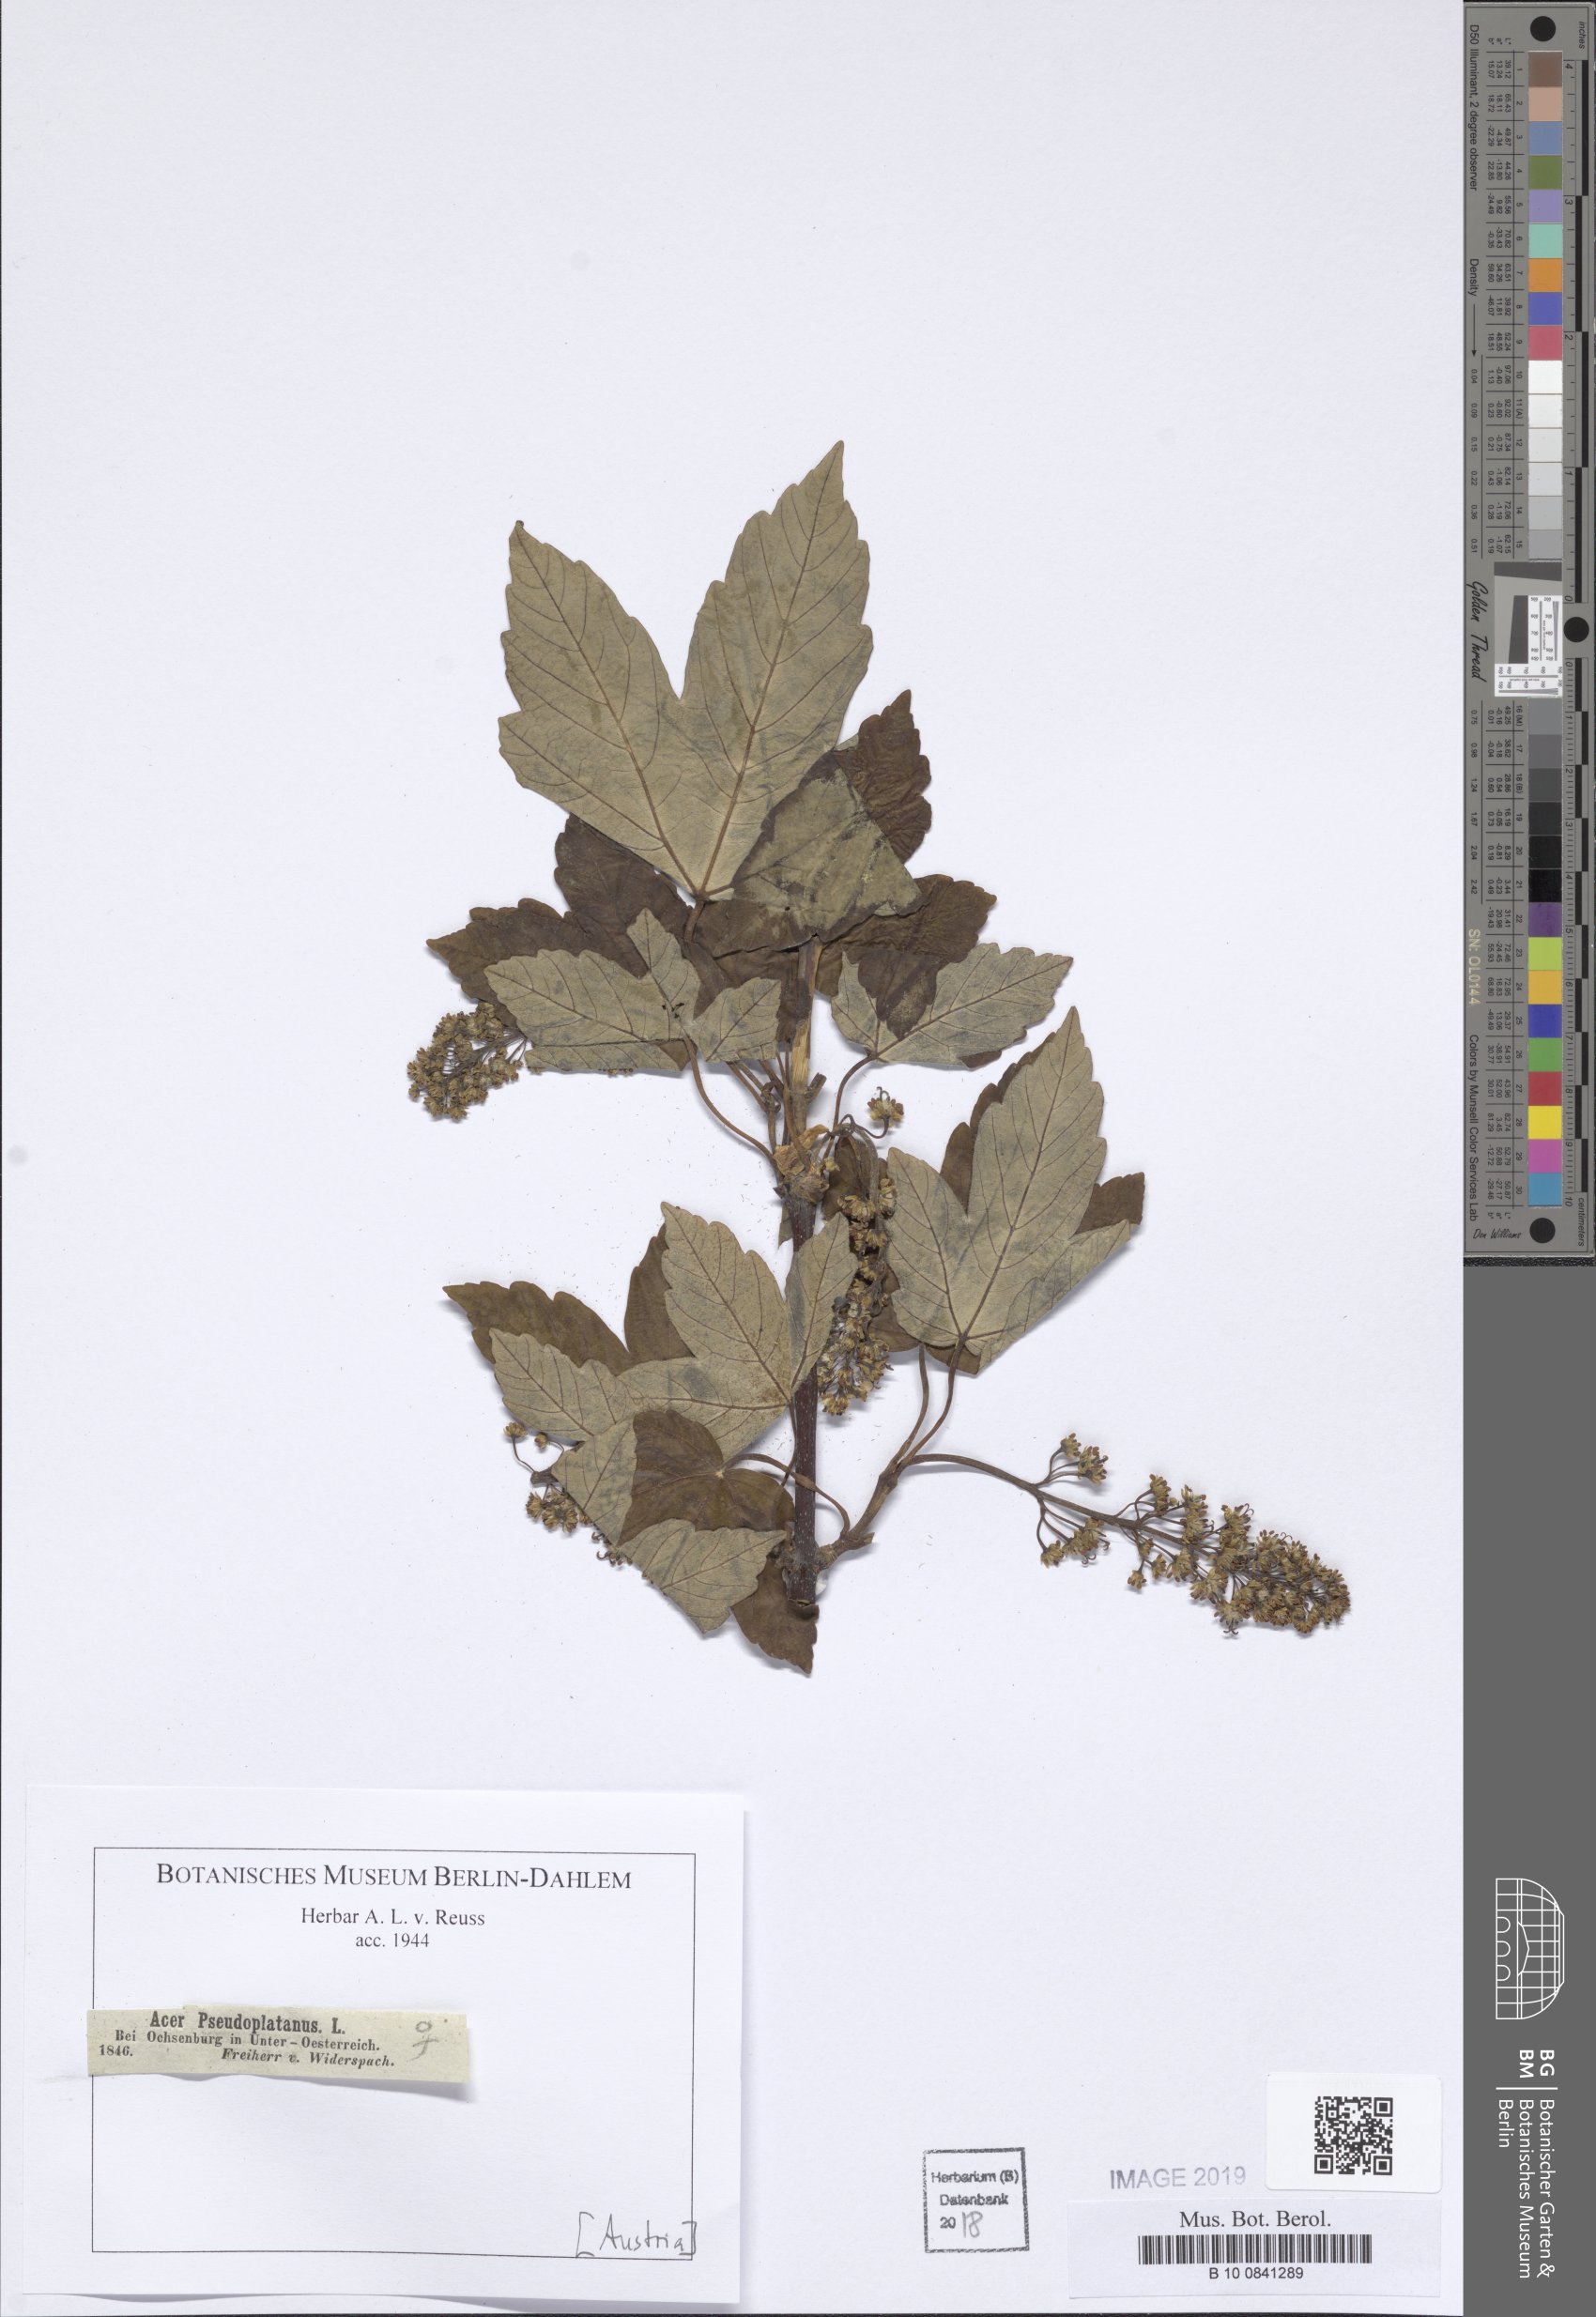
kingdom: Plantae
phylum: Tracheophyta
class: Magnoliopsida
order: Sapindales
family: Sapindaceae
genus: Acer
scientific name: Acer pseudoplatanus
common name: Sycamore
